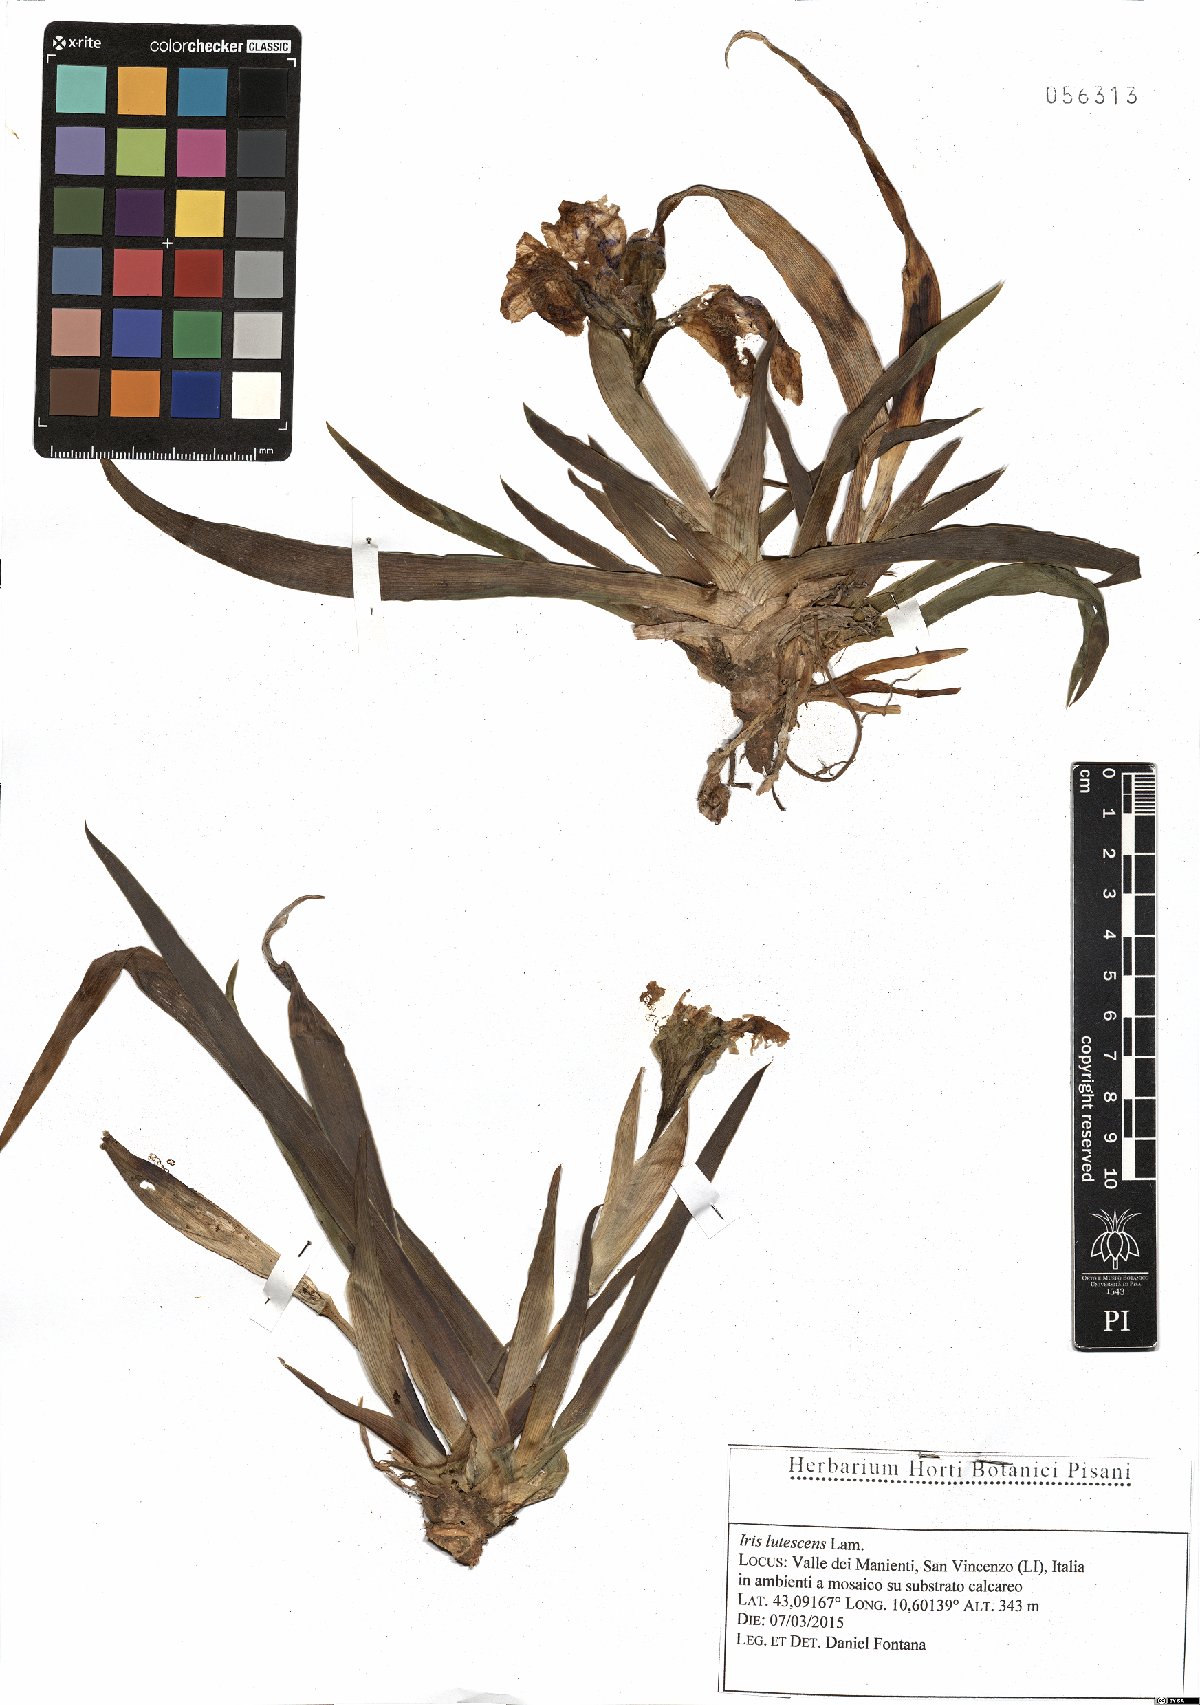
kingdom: Plantae
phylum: Tracheophyta
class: Liliopsida
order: Asparagales
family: Iridaceae
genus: Iris
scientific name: Iris lutescens
